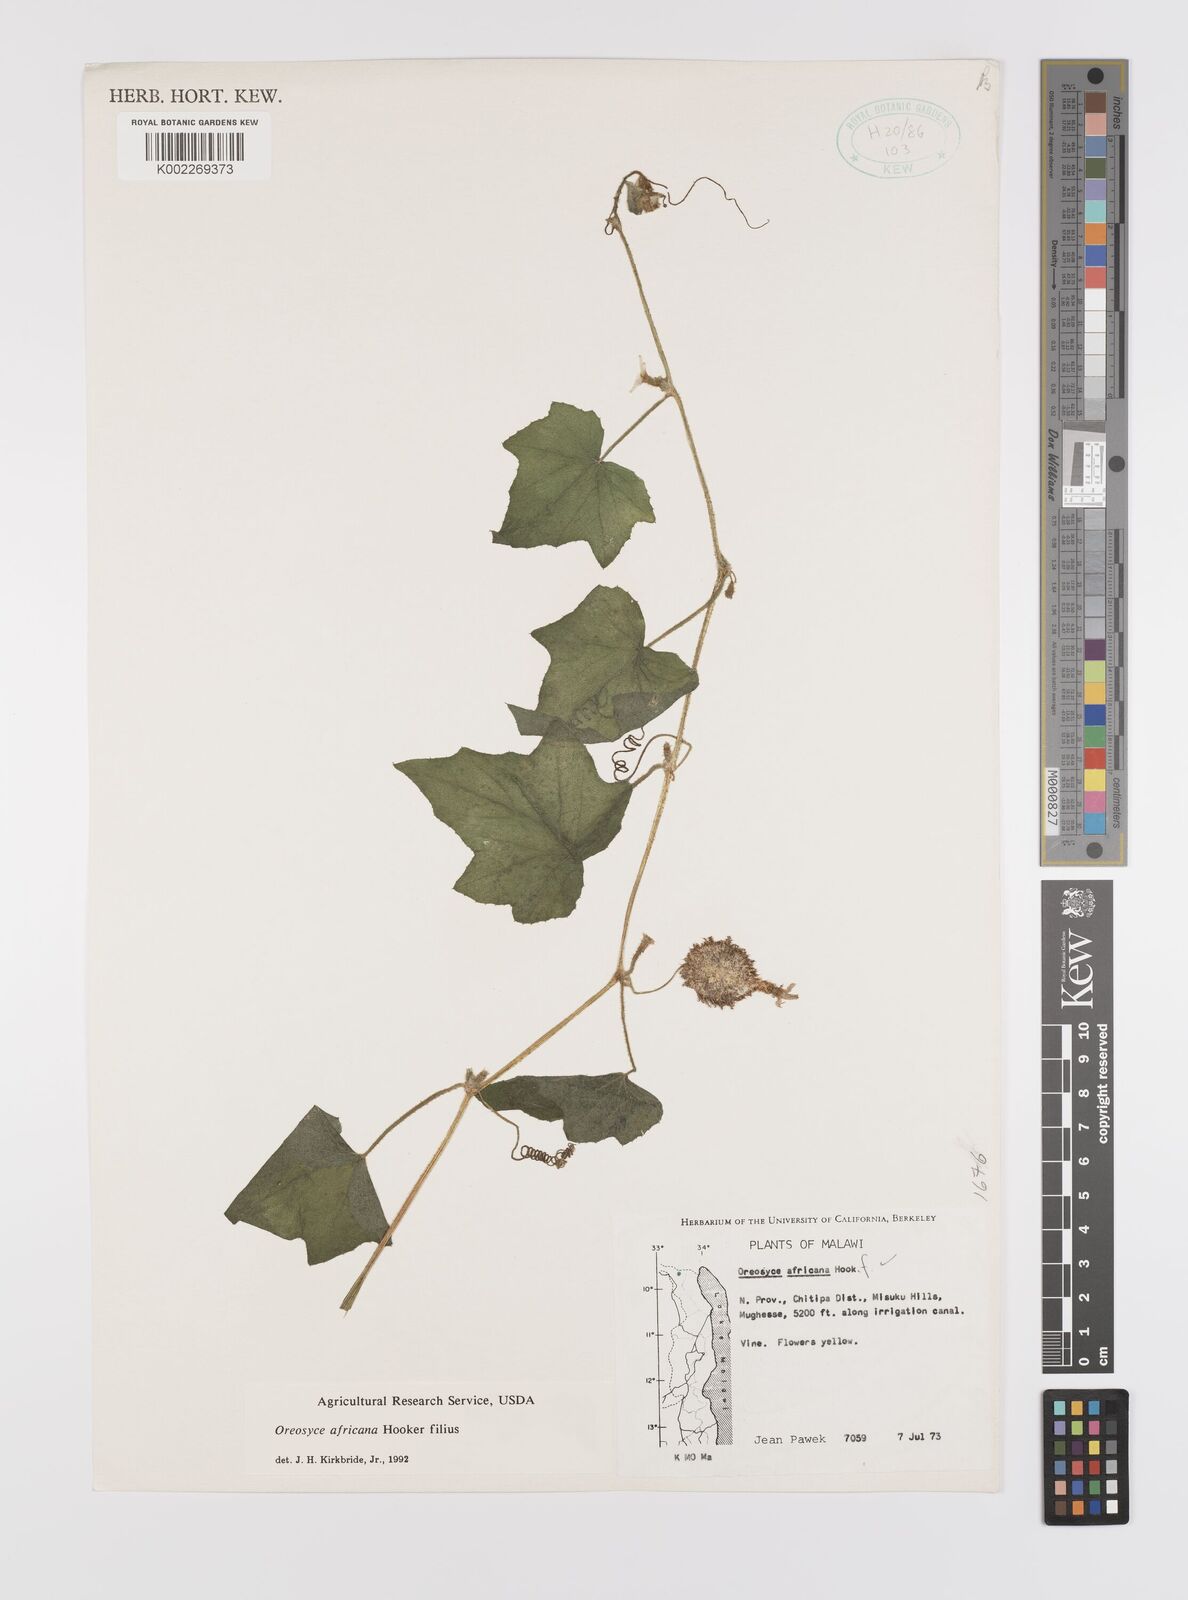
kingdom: Plantae
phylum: Tracheophyta
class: Magnoliopsida
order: Cucurbitales
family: Cucurbitaceae
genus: Cucumis
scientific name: Cucumis oreosyce
